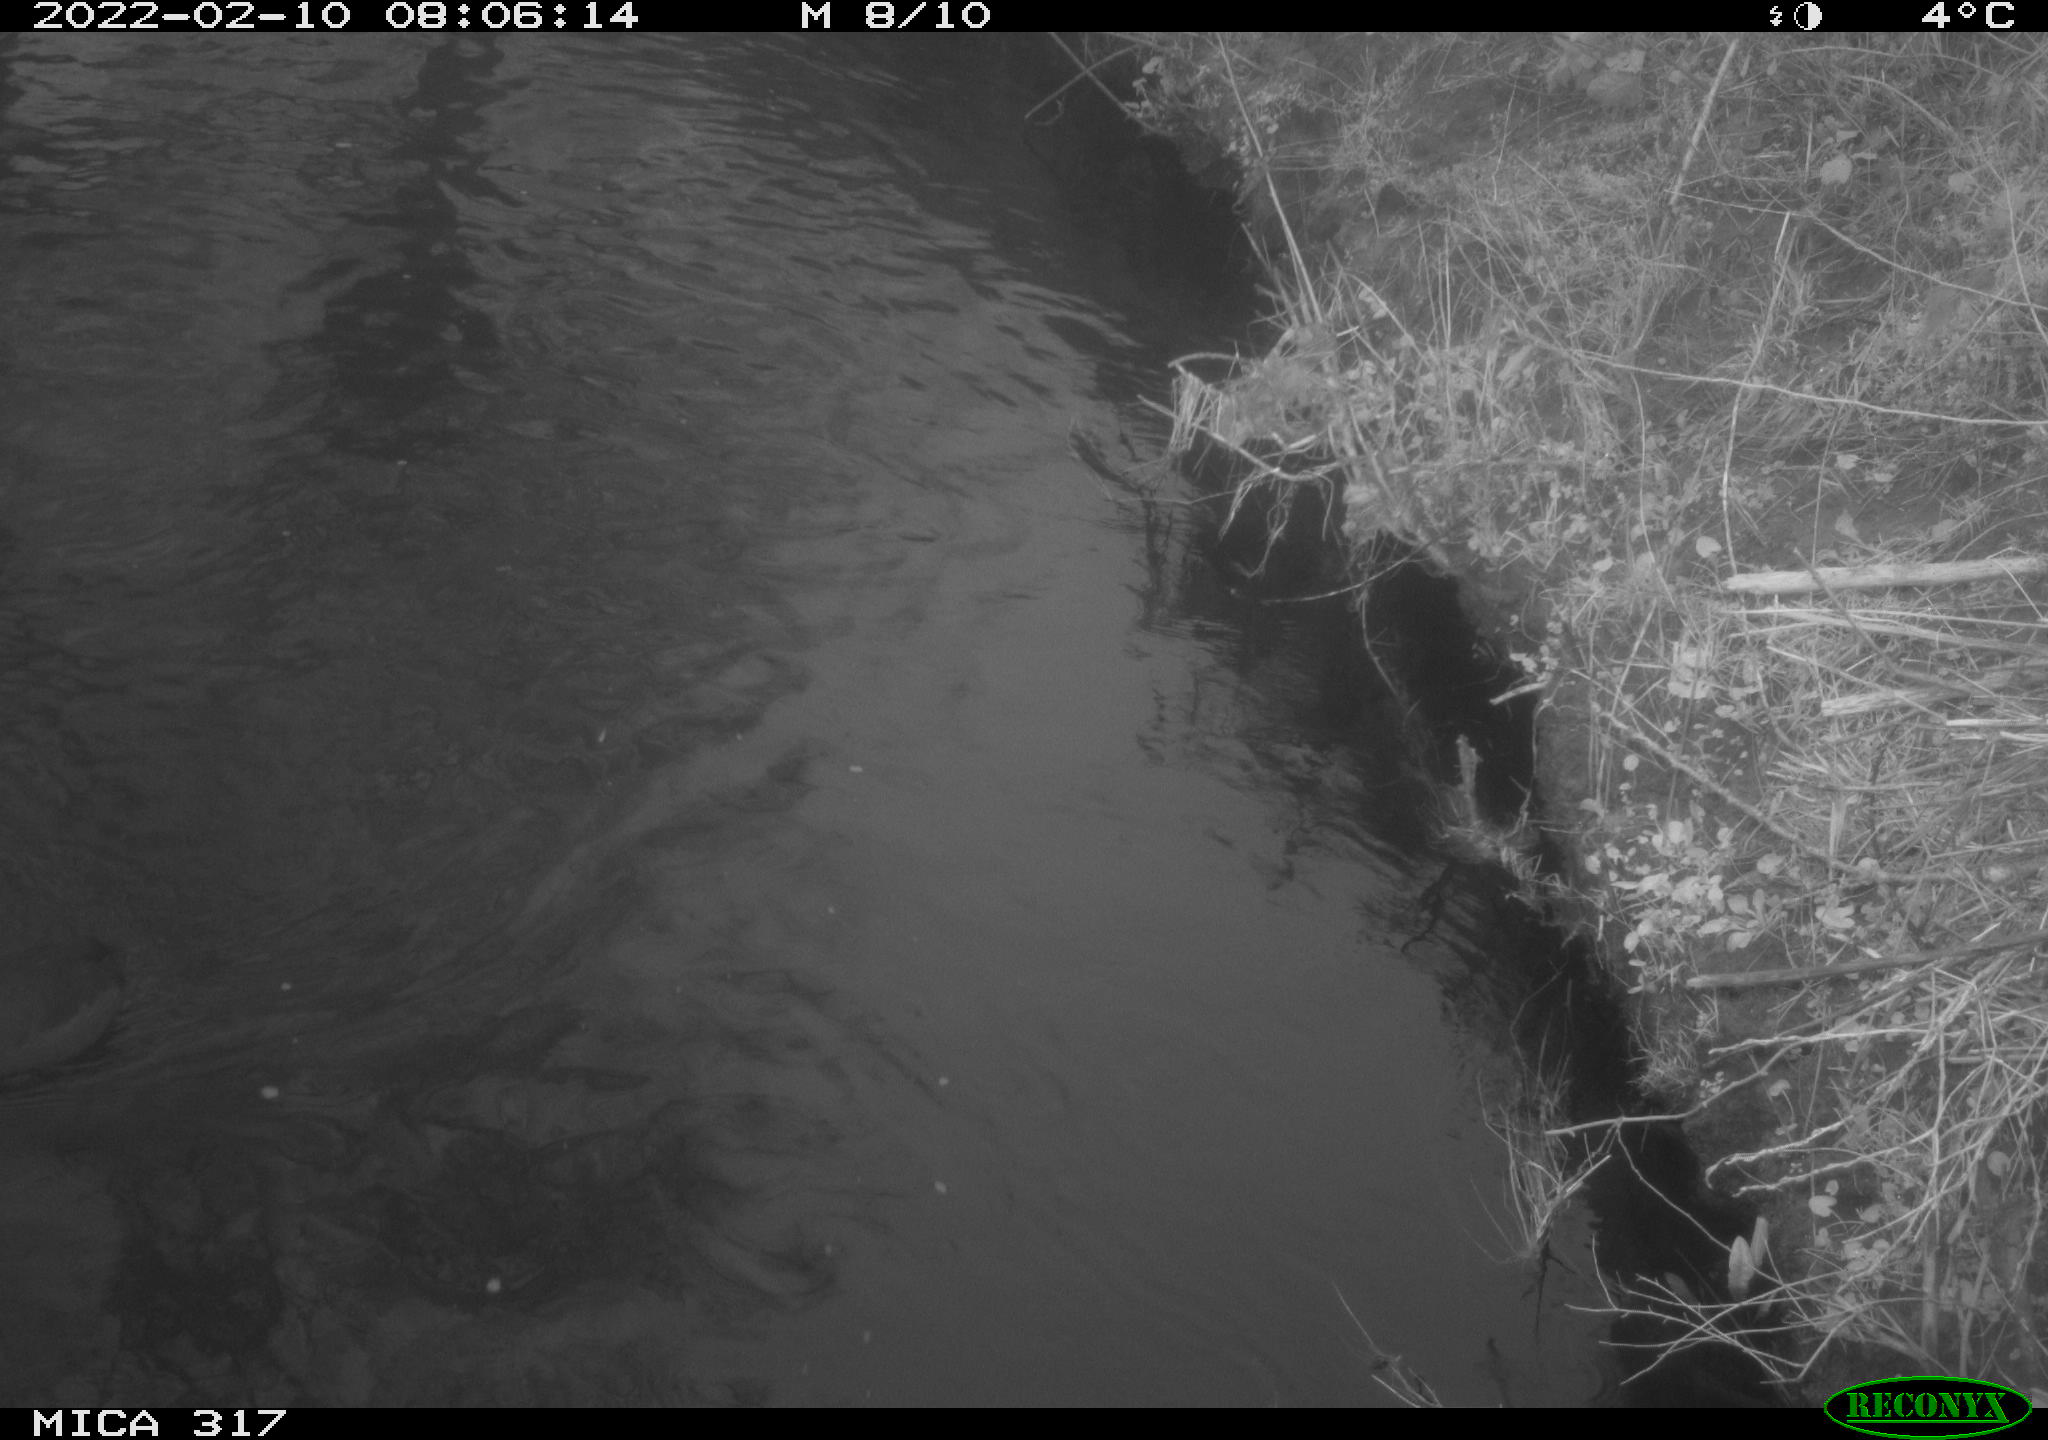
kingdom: Animalia
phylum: Chordata
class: Aves
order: Gruiformes
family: Rallidae
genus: Fulica
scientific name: Fulica atra
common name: Eurasian coot
